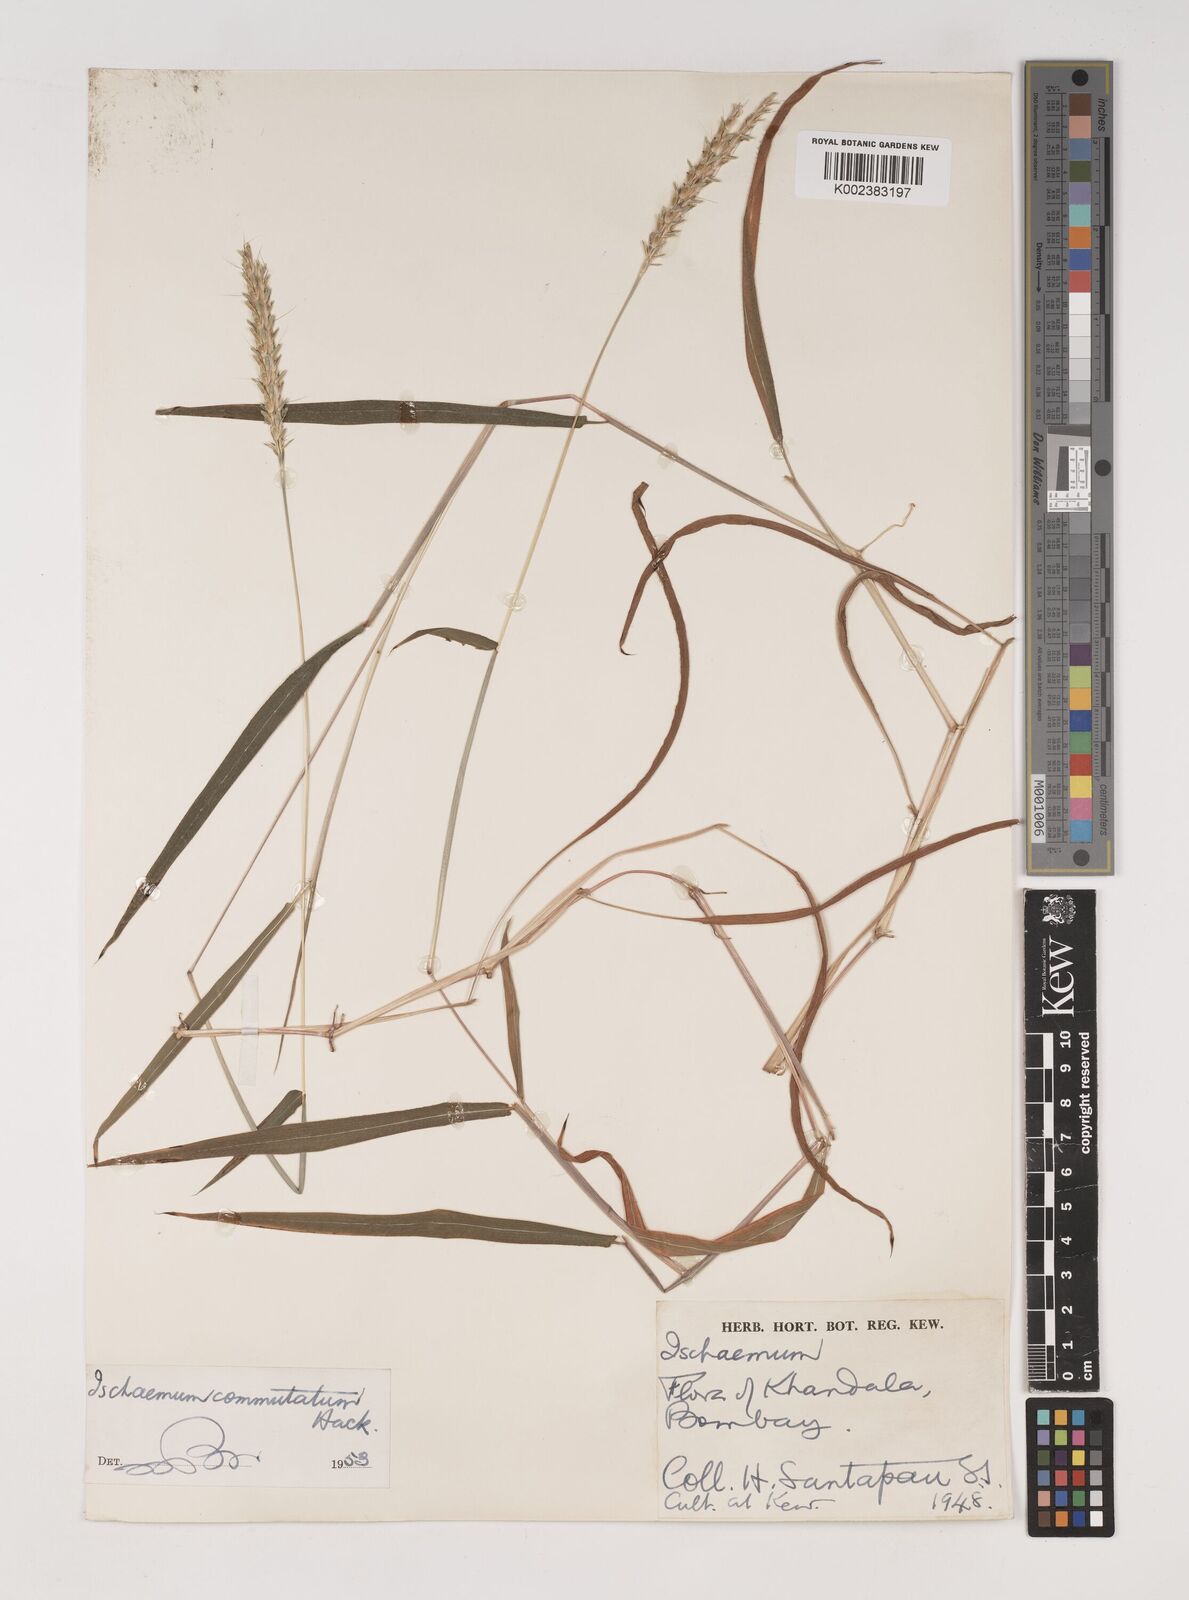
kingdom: Plantae
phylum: Tracheophyta
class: Liliopsida
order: Poales
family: Poaceae
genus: Ischaemum
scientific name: Ischaemum commutatum
